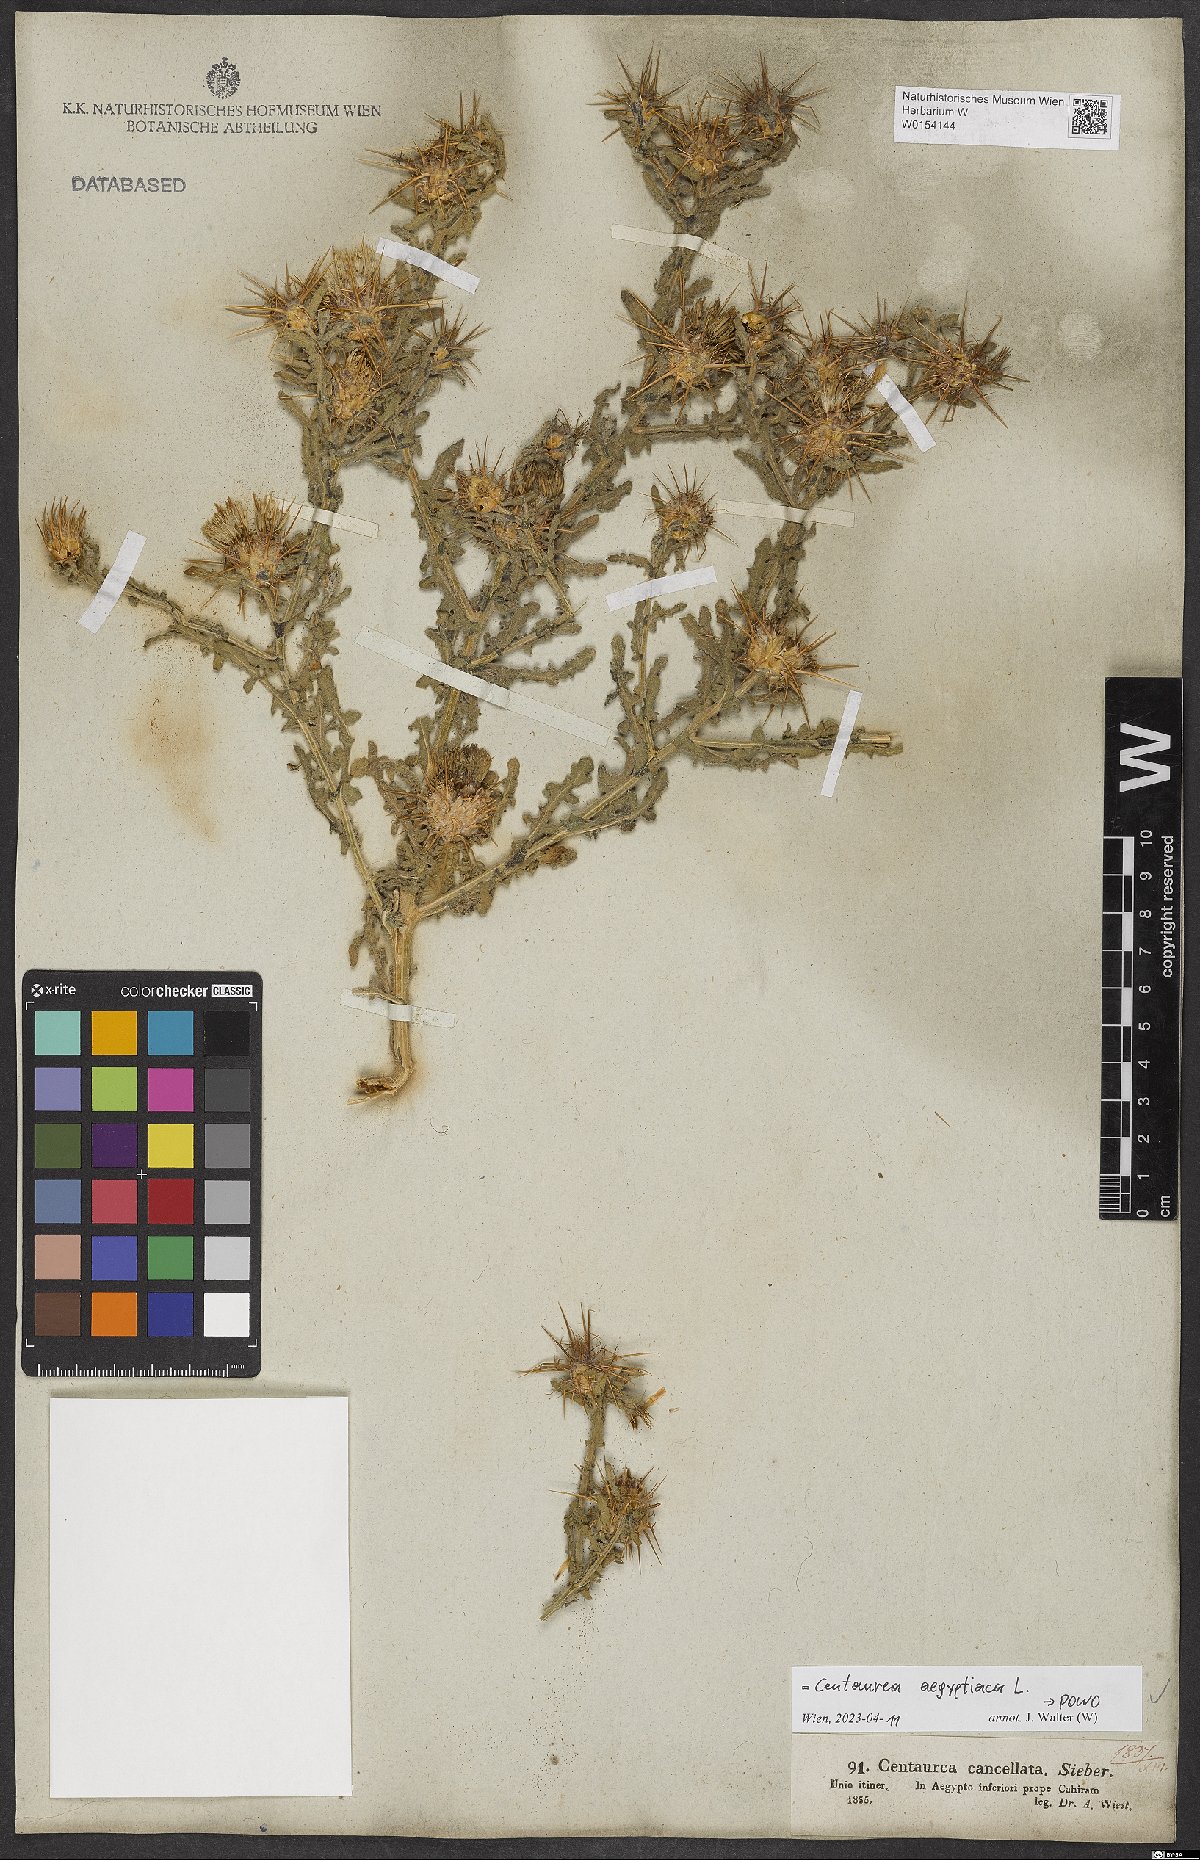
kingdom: Plantae
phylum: Tracheophyta
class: Magnoliopsida
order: Asterales
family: Asteraceae
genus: Centaurea
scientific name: Centaurea aegyptiaca
